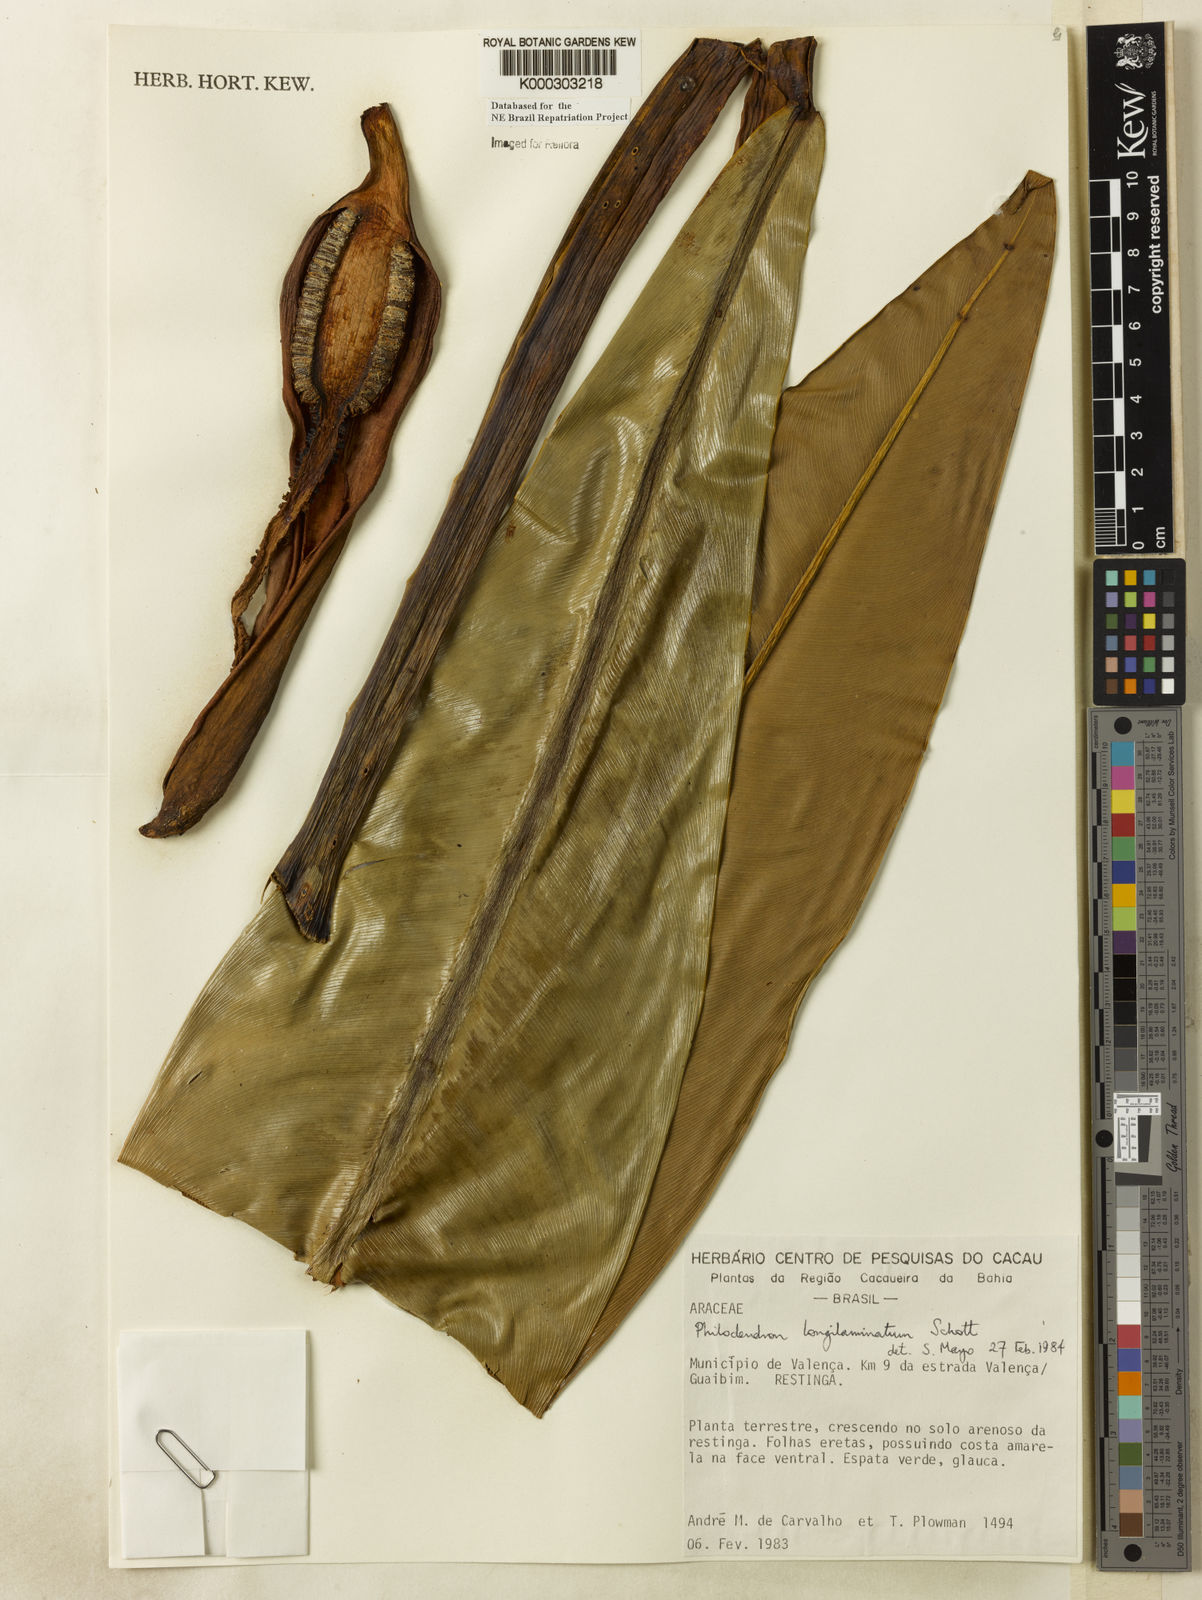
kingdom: Plantae
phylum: Tracheophyta
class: Liliopsida
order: Alismatales
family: Araceae
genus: Philodendron
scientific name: Philodendron longilaminatum
